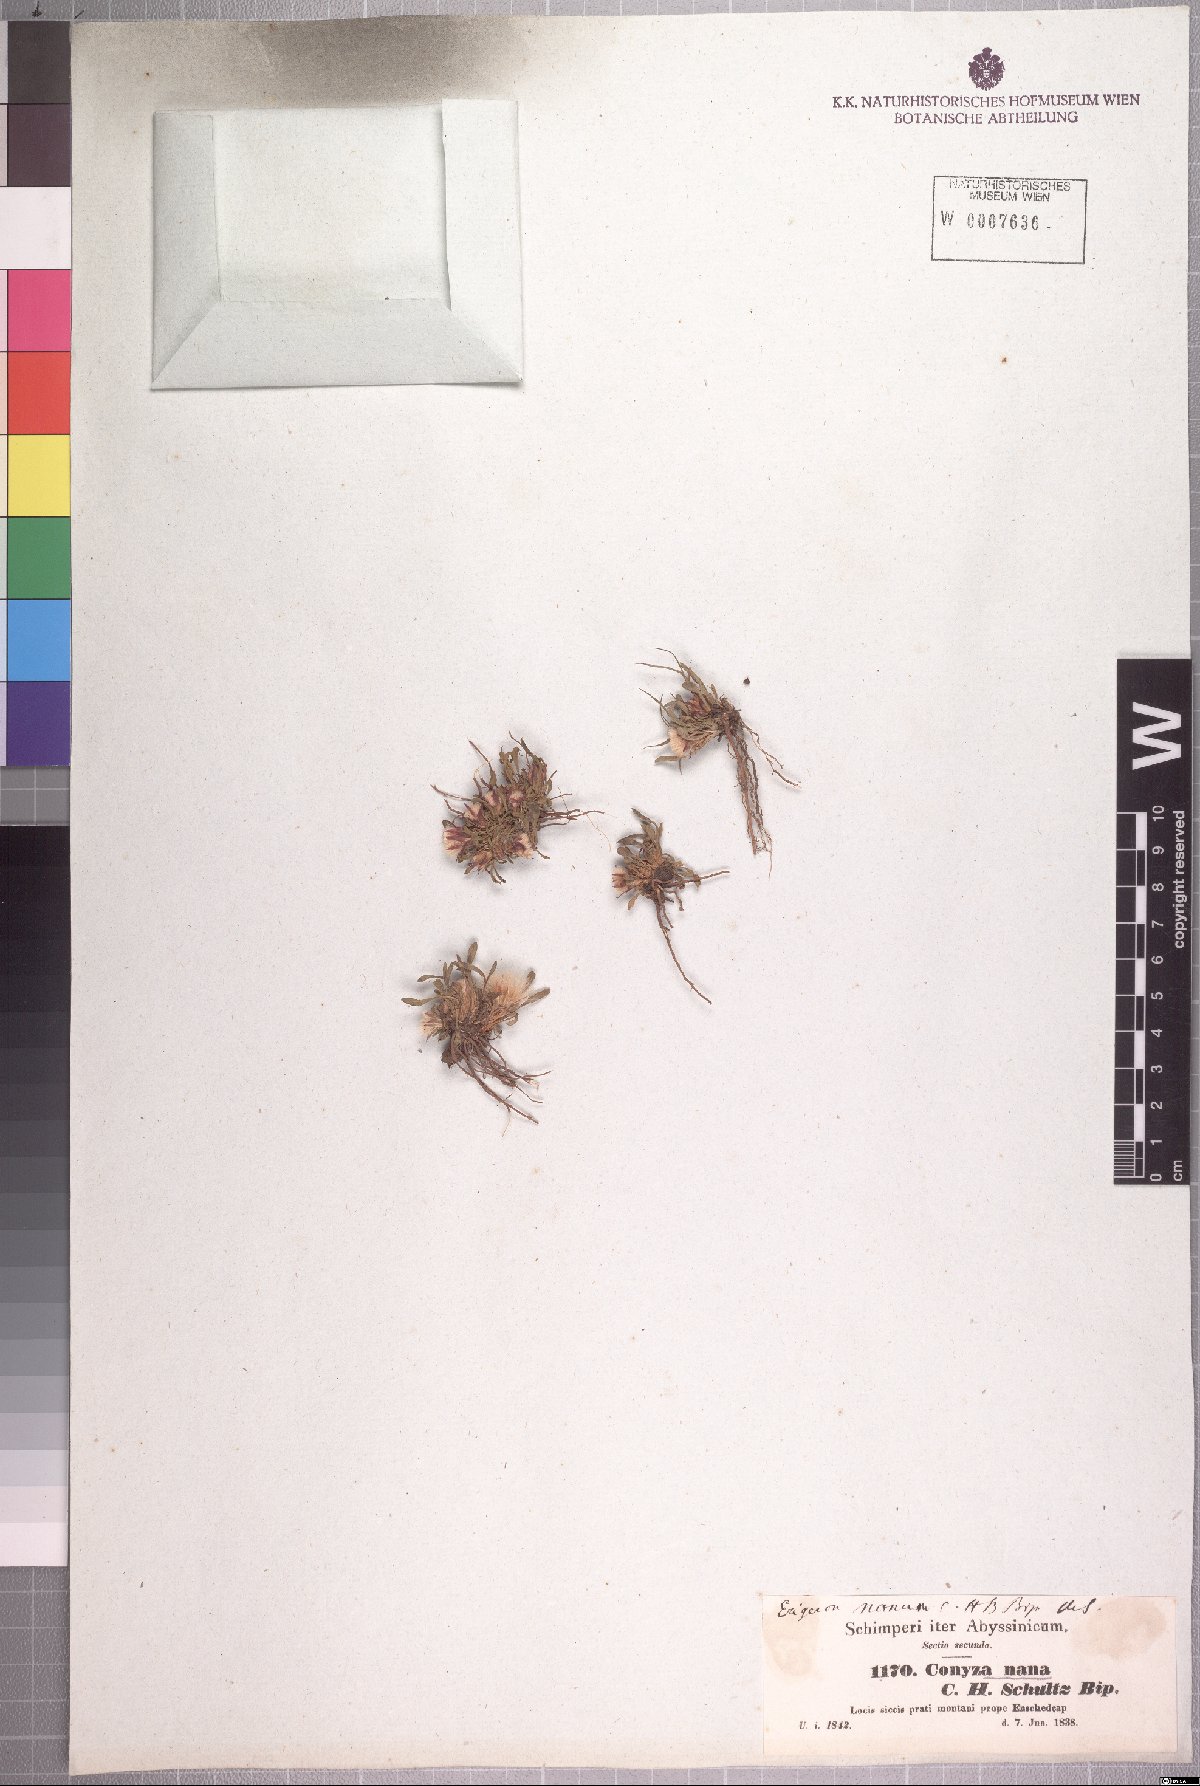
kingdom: Plantae
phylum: Tracheophyta
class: Magnoliopsida
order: Asterales
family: Asteraceae
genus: Conyza
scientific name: Conyza nana
